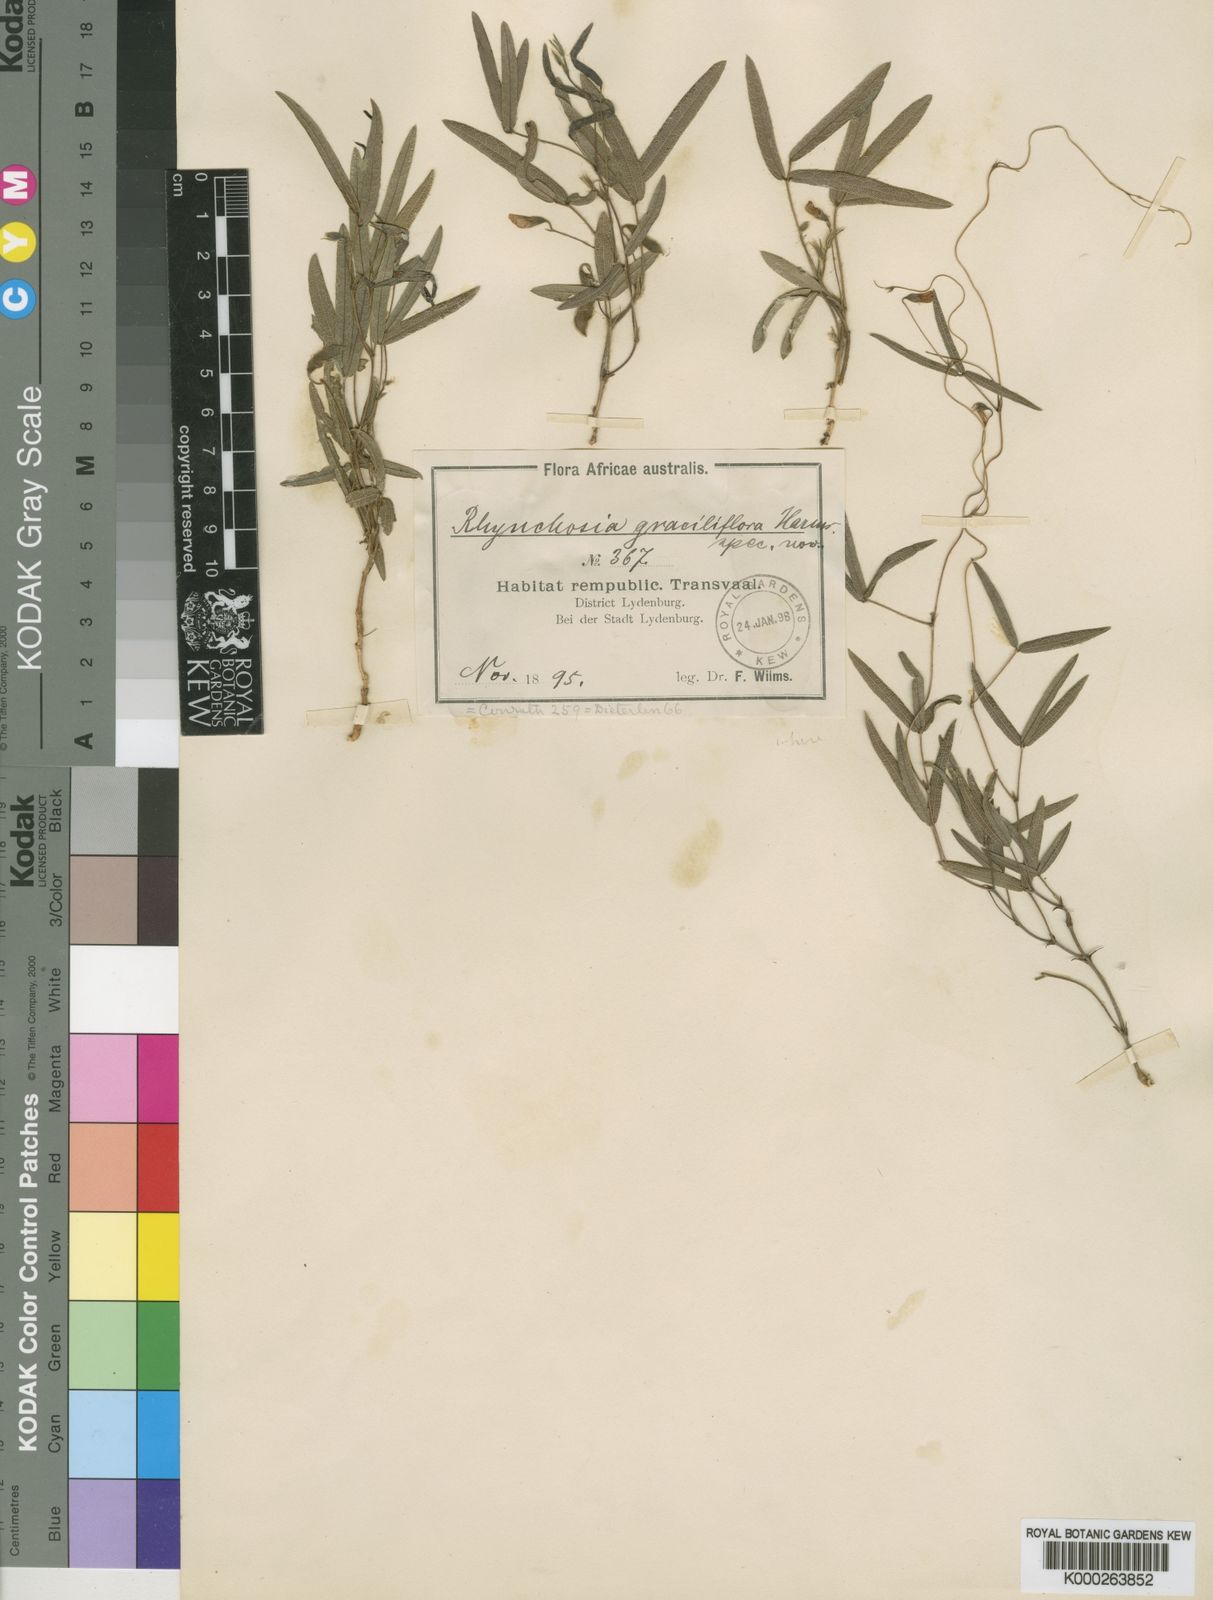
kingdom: Plantae
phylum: Tracheophyta
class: Magnoliopsida
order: Fabales
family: Fabaceae
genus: Rhynchosia
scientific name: Rhynchosia totta
